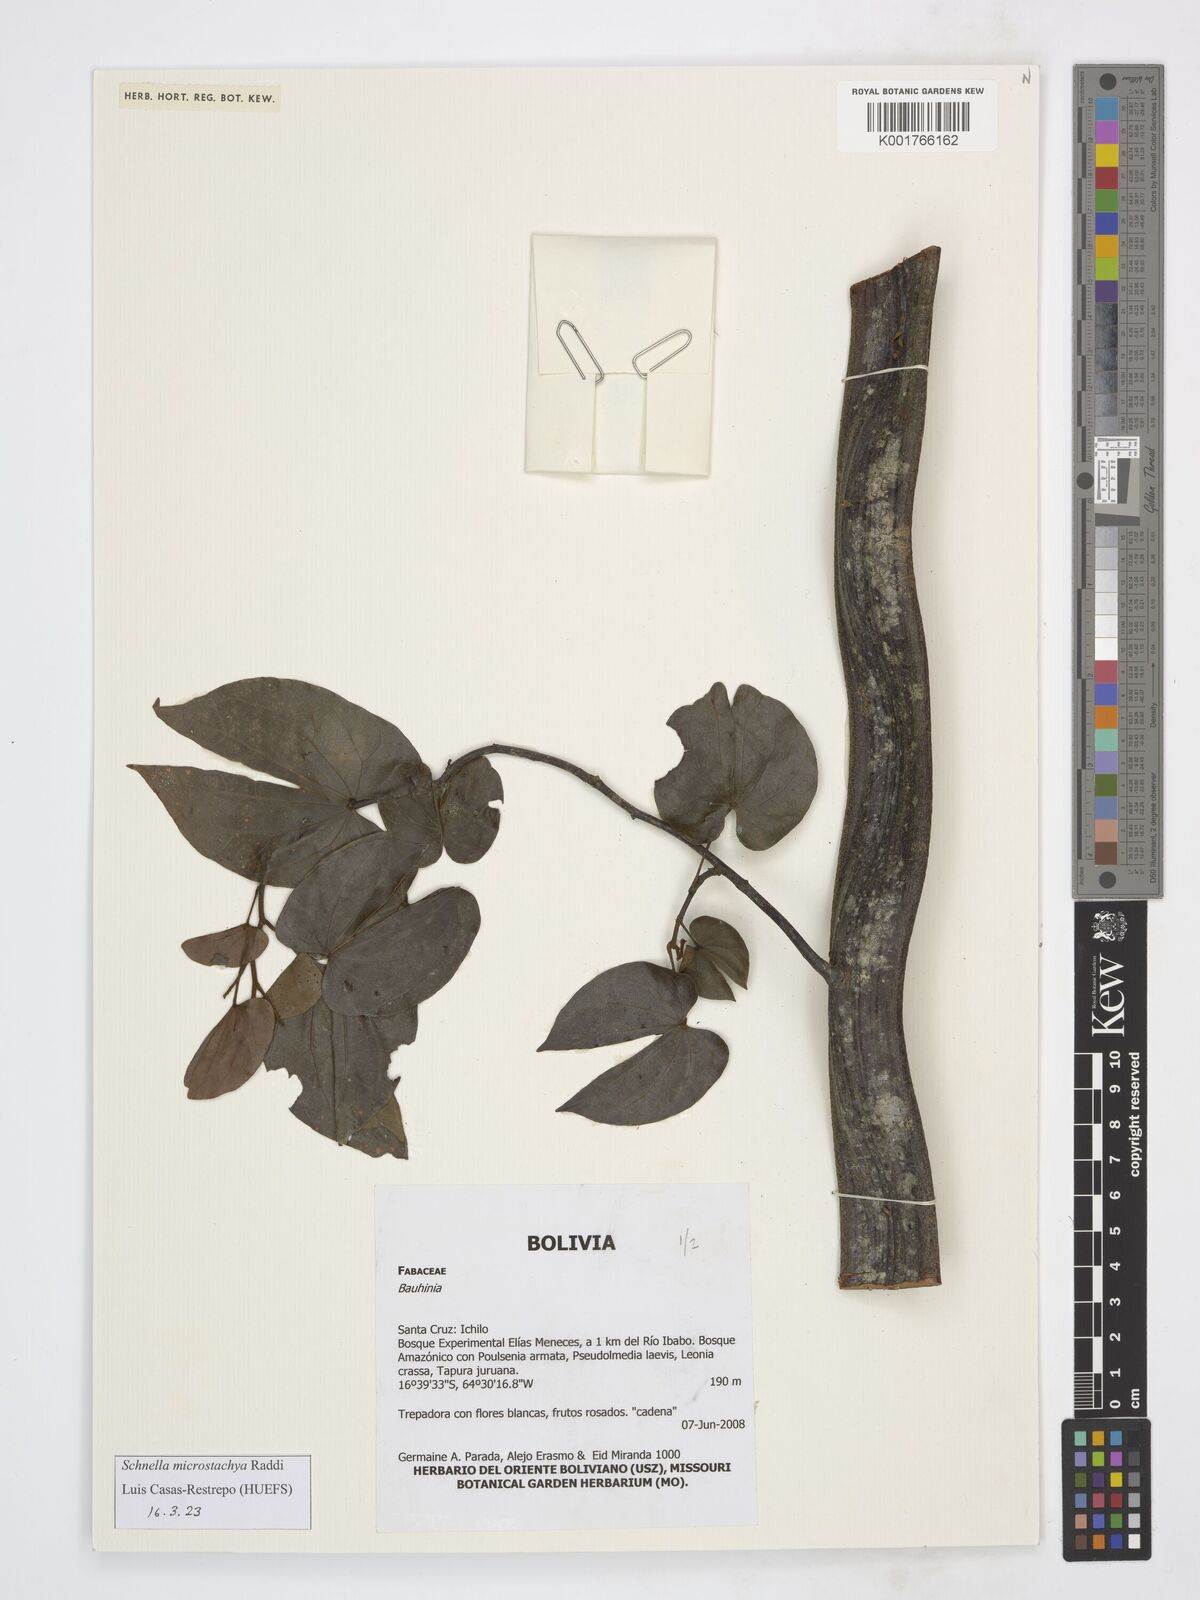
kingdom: Plantae
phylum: Tracheophyta
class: Magnoliopsida
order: Fabales
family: Fabaceae
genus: Schnella
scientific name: Schnella microstachya
